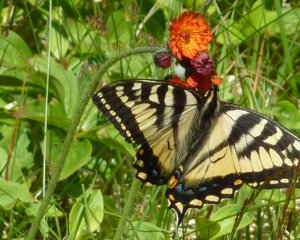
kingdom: Animalia
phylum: Arthropoda
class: Insecta
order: Lepidoptera
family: Papilionidae
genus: Pterourus
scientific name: Pterourus canadensis
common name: Canadian Tiger Swallowtail
